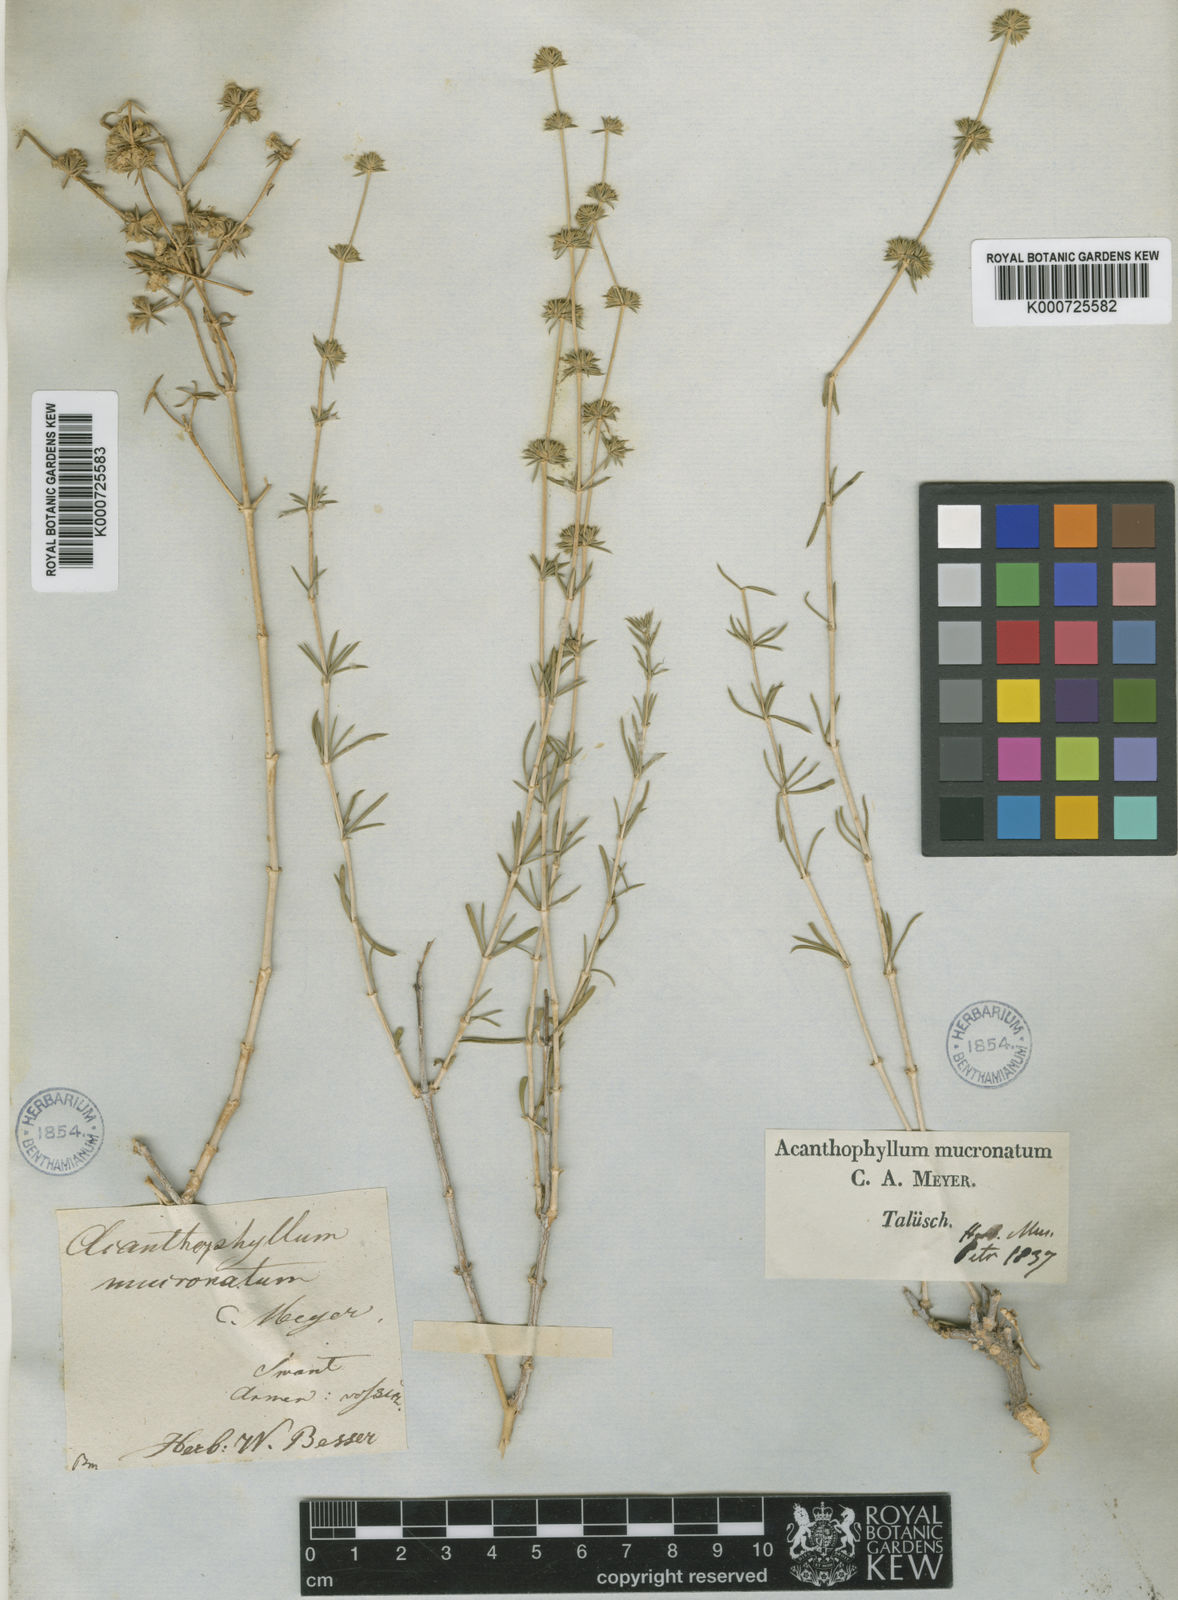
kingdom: Plantae
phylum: Tracheophyta
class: Magnoliopsida
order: Caryophyllales
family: Caryophyllaceae
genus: Acanthophyllum
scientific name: Acanthophyllum mucronatum
